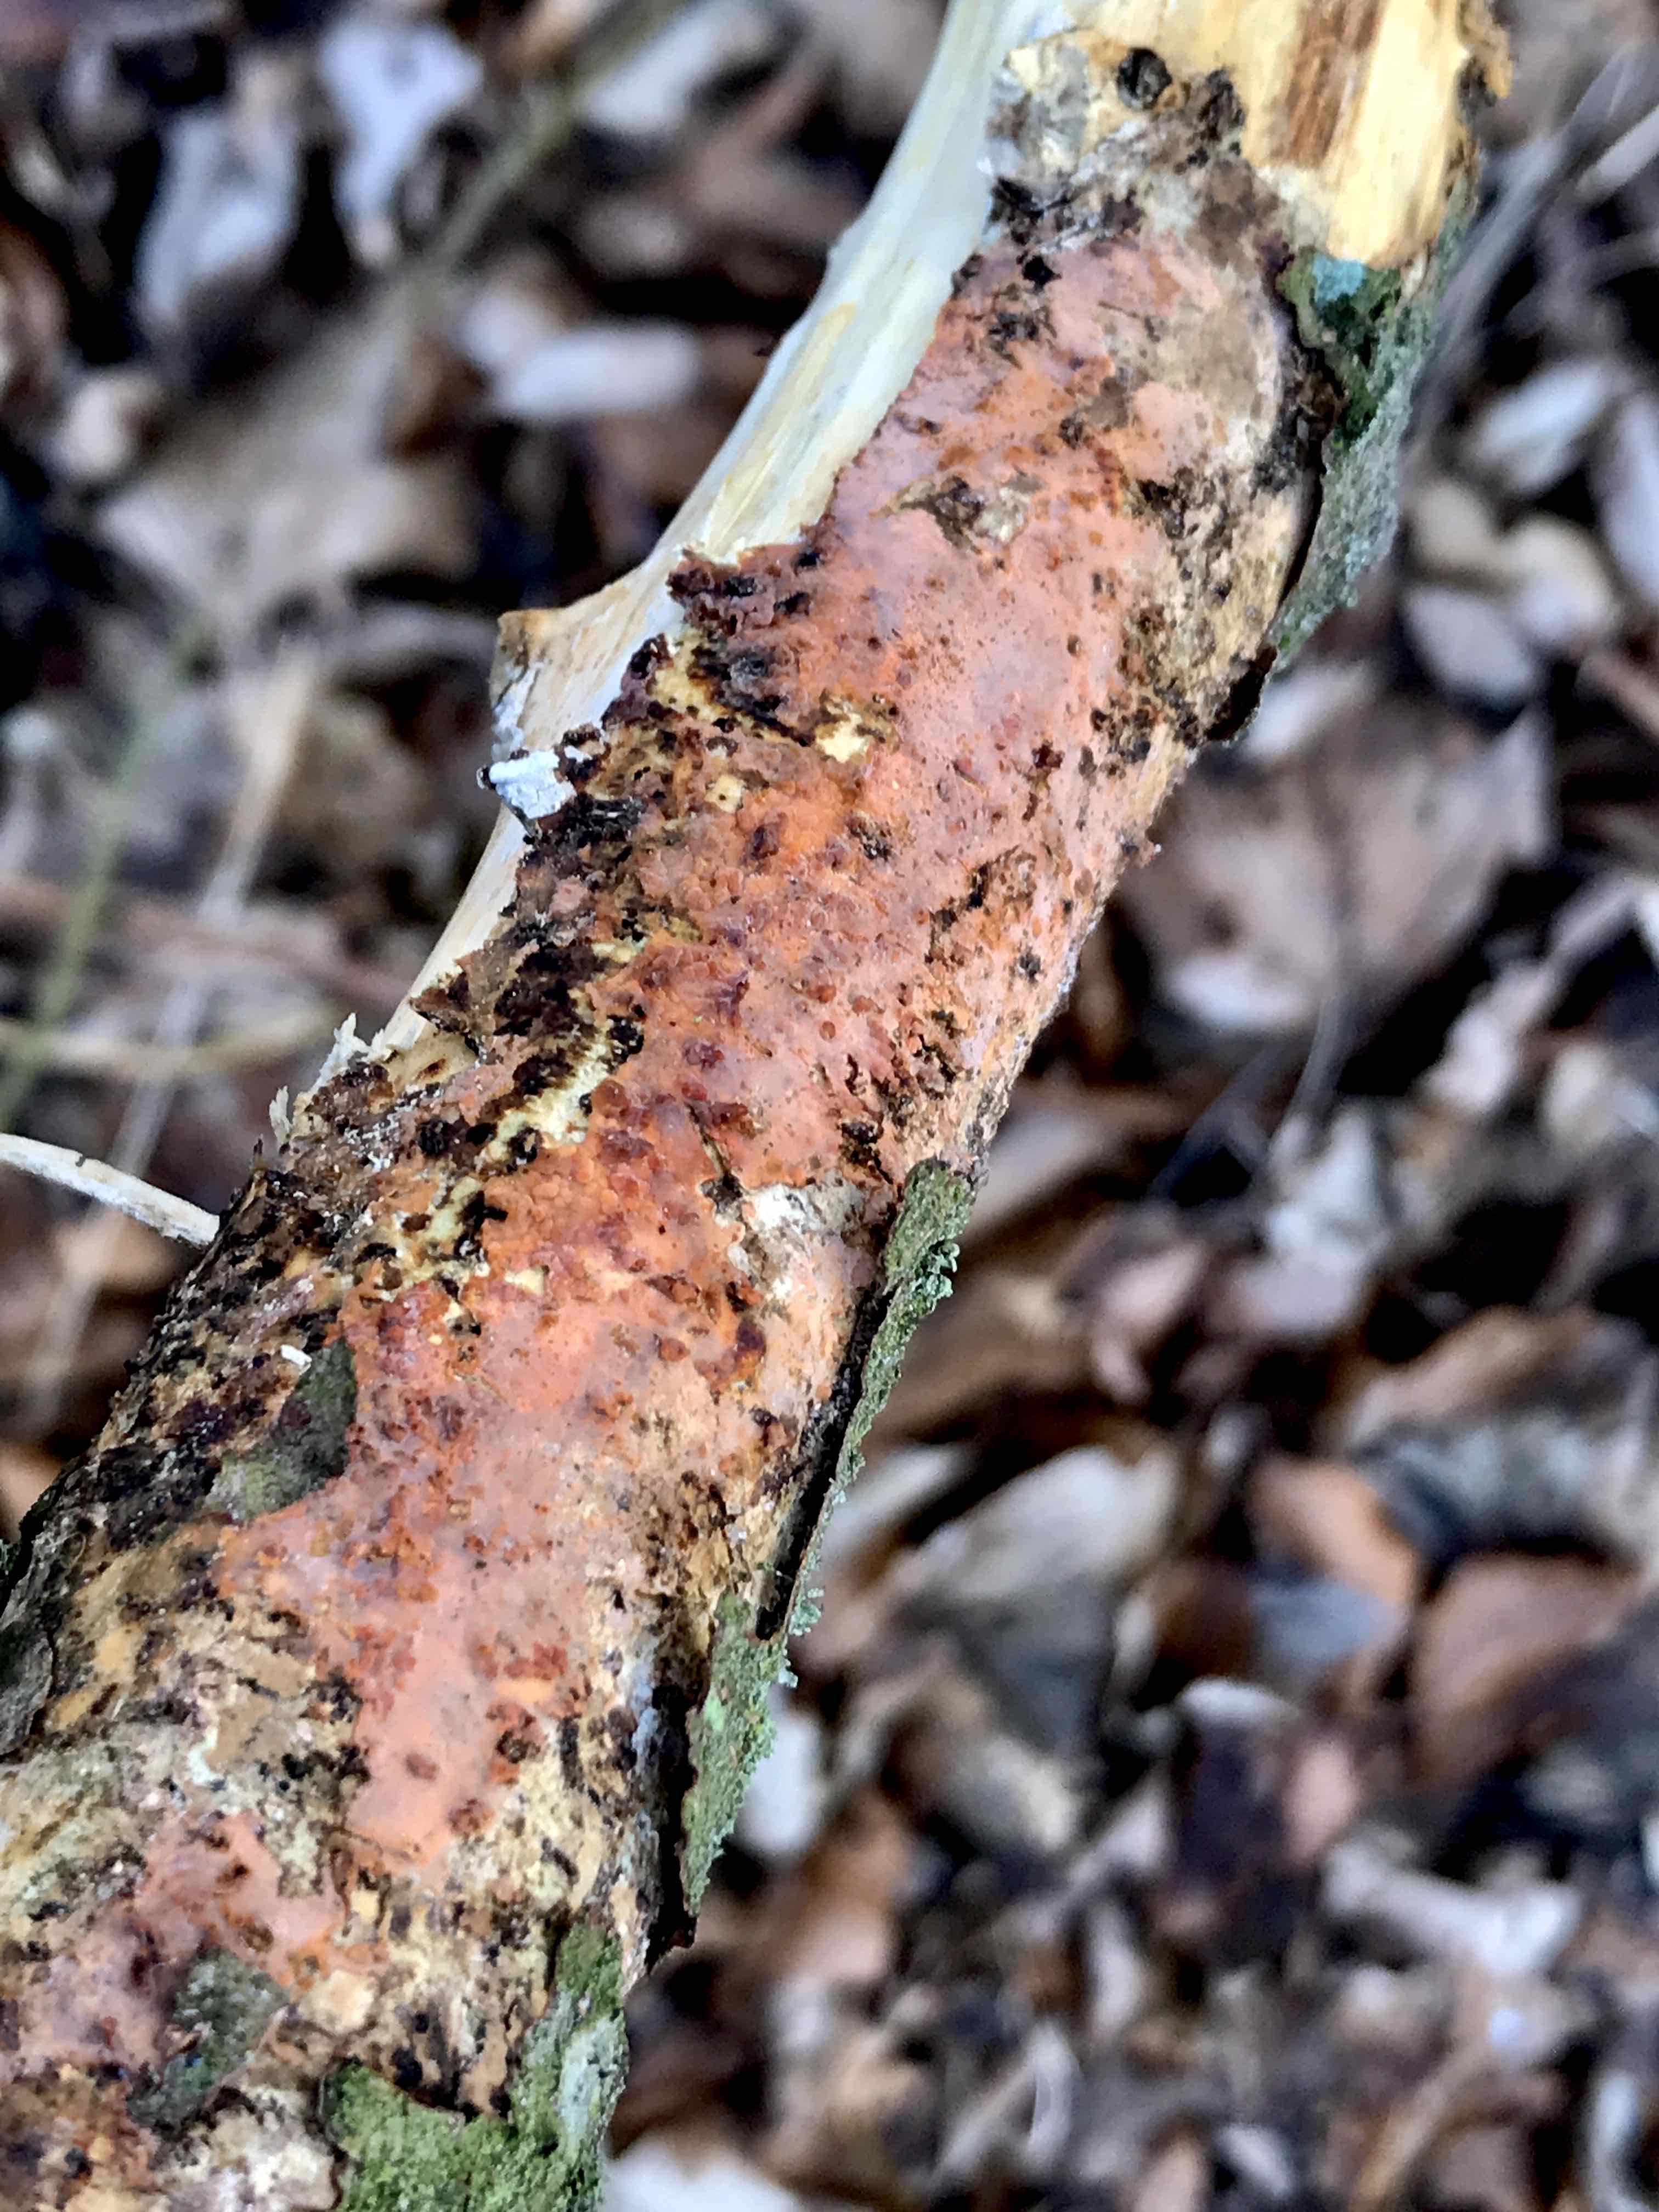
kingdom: Fungi
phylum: Basidiomycota
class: Agaricomycetes
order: Corticiales
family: Vuilleminiaceae
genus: Vuilleminia
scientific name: Vuilleminia comedens
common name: almindelig barksprænger
